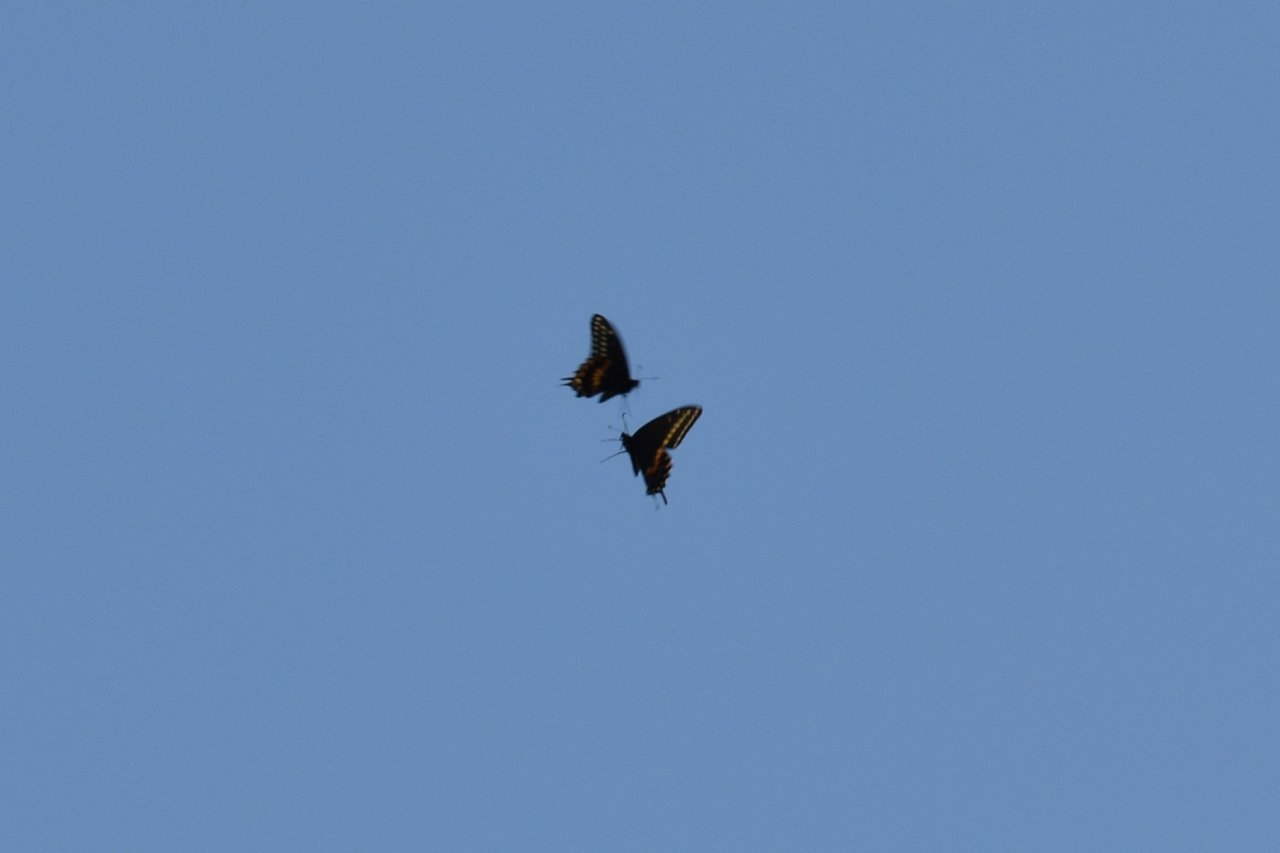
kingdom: Animalia
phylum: Arthropoda
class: Insecta
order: Lepidoptera
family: Papilionidae
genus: Papilio
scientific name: Papilio polyxenes
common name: Black Swallowtail
